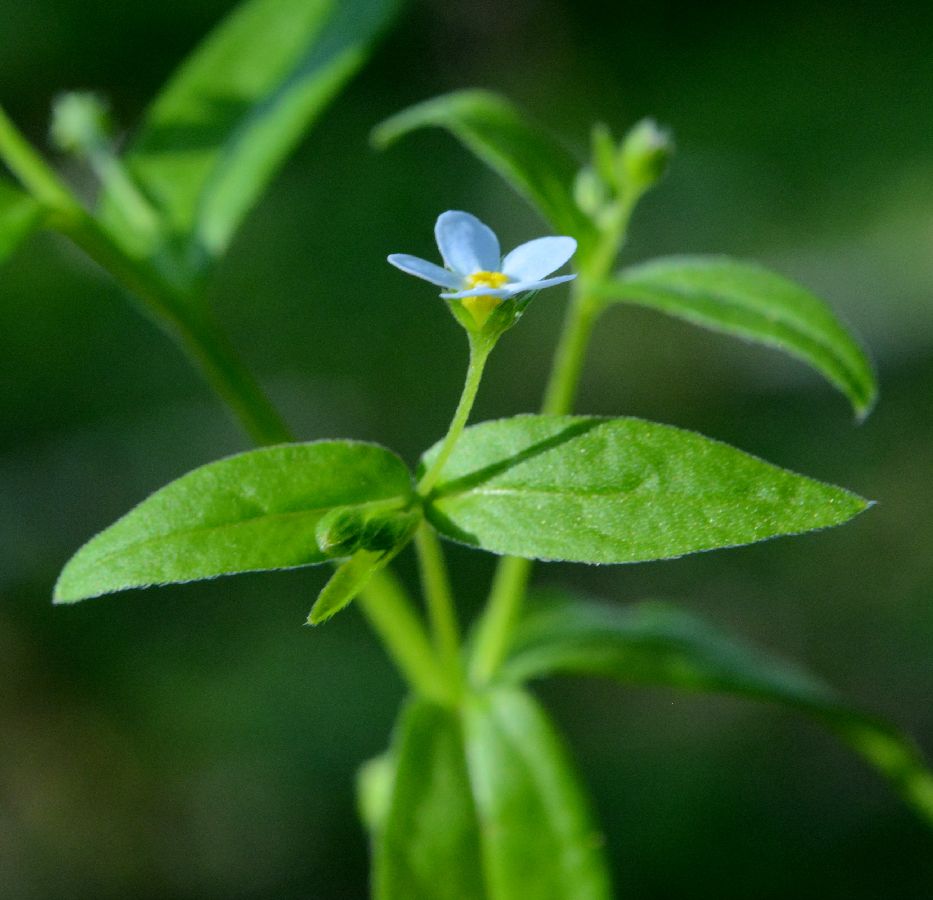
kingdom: Plantae
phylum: Tracheophyta
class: Magnoliopsida
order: Boraginales
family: Boraginaceae
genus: Memoremea
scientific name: Memoremea scorpioides
